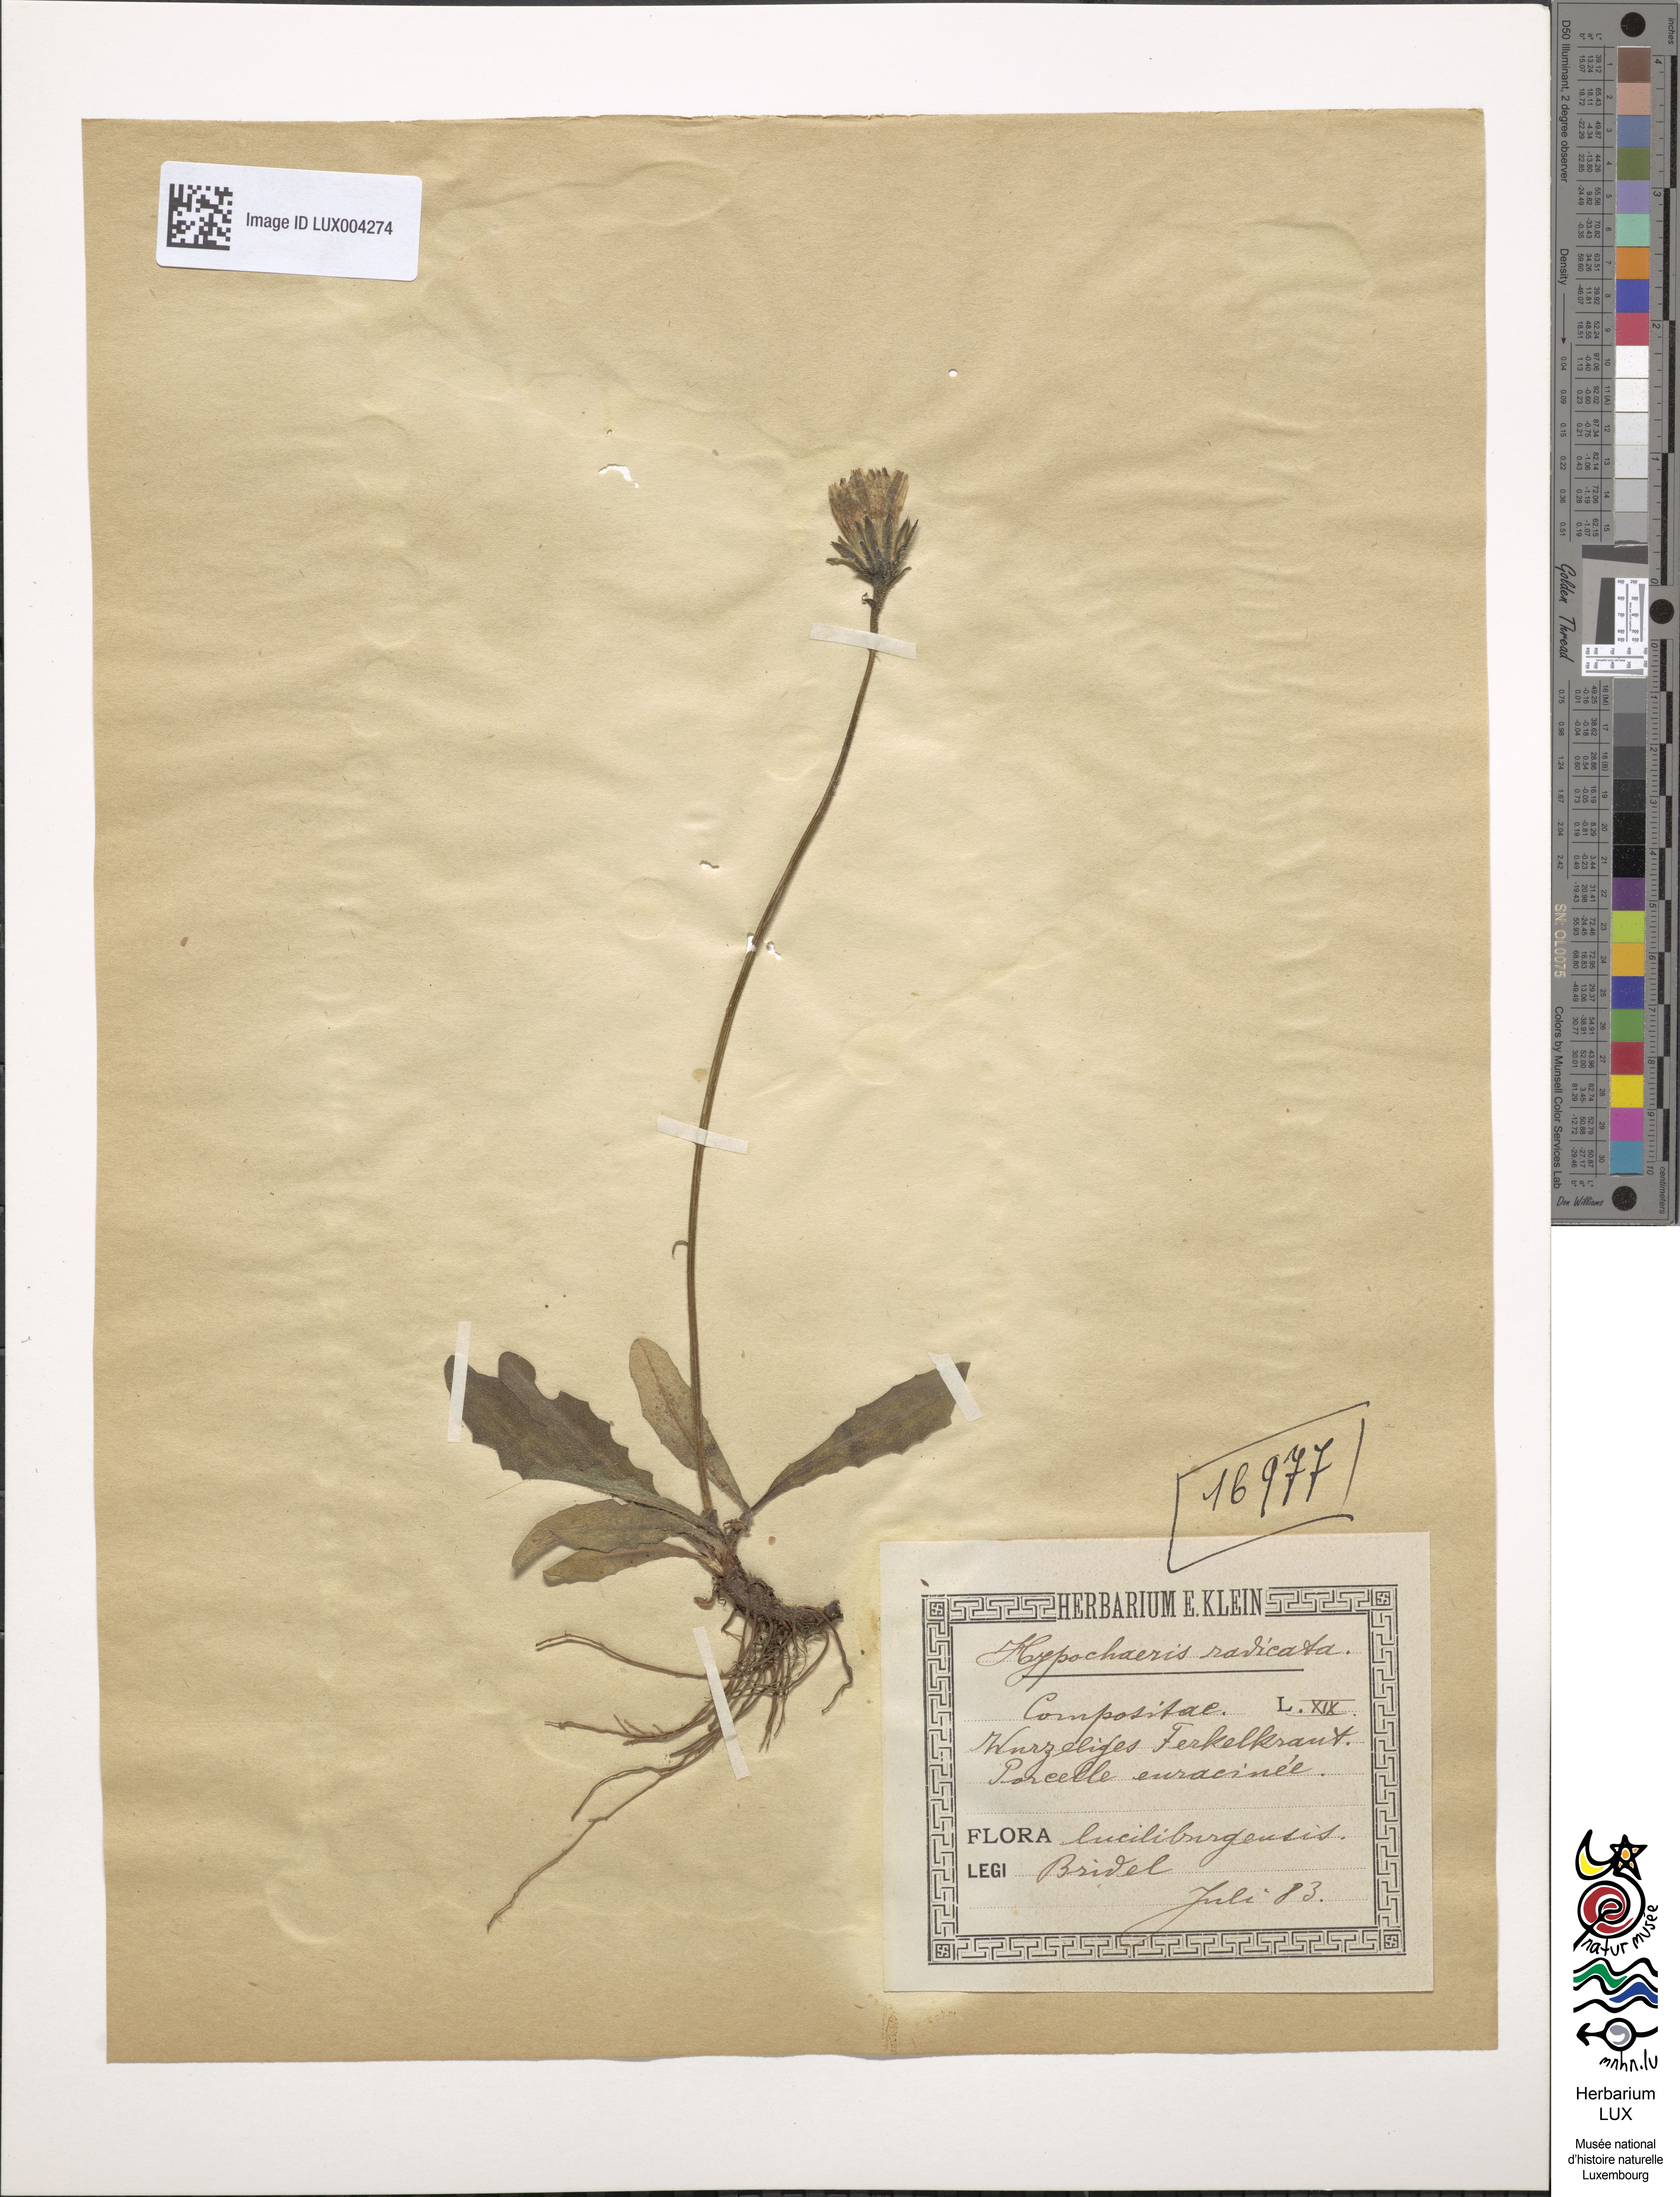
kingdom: Plantae
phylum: Tracheophyta
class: Magnoliopsida
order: Asterales
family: Asteraceae
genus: Hypochoeris
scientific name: Hypochoeris radicata
